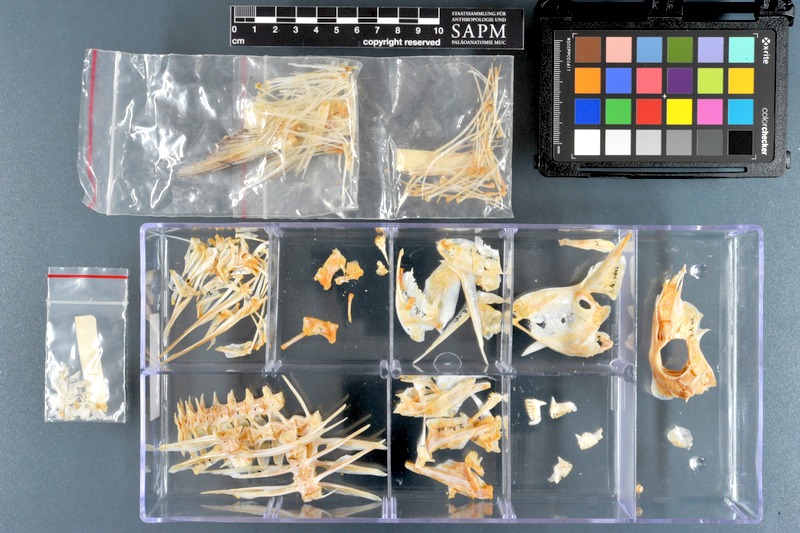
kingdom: Animalia
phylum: Chordata
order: Perciformes
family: Acanthuridae
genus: Acanthurus
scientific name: Acanthurus sohal
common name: Red sea surgeonfish
